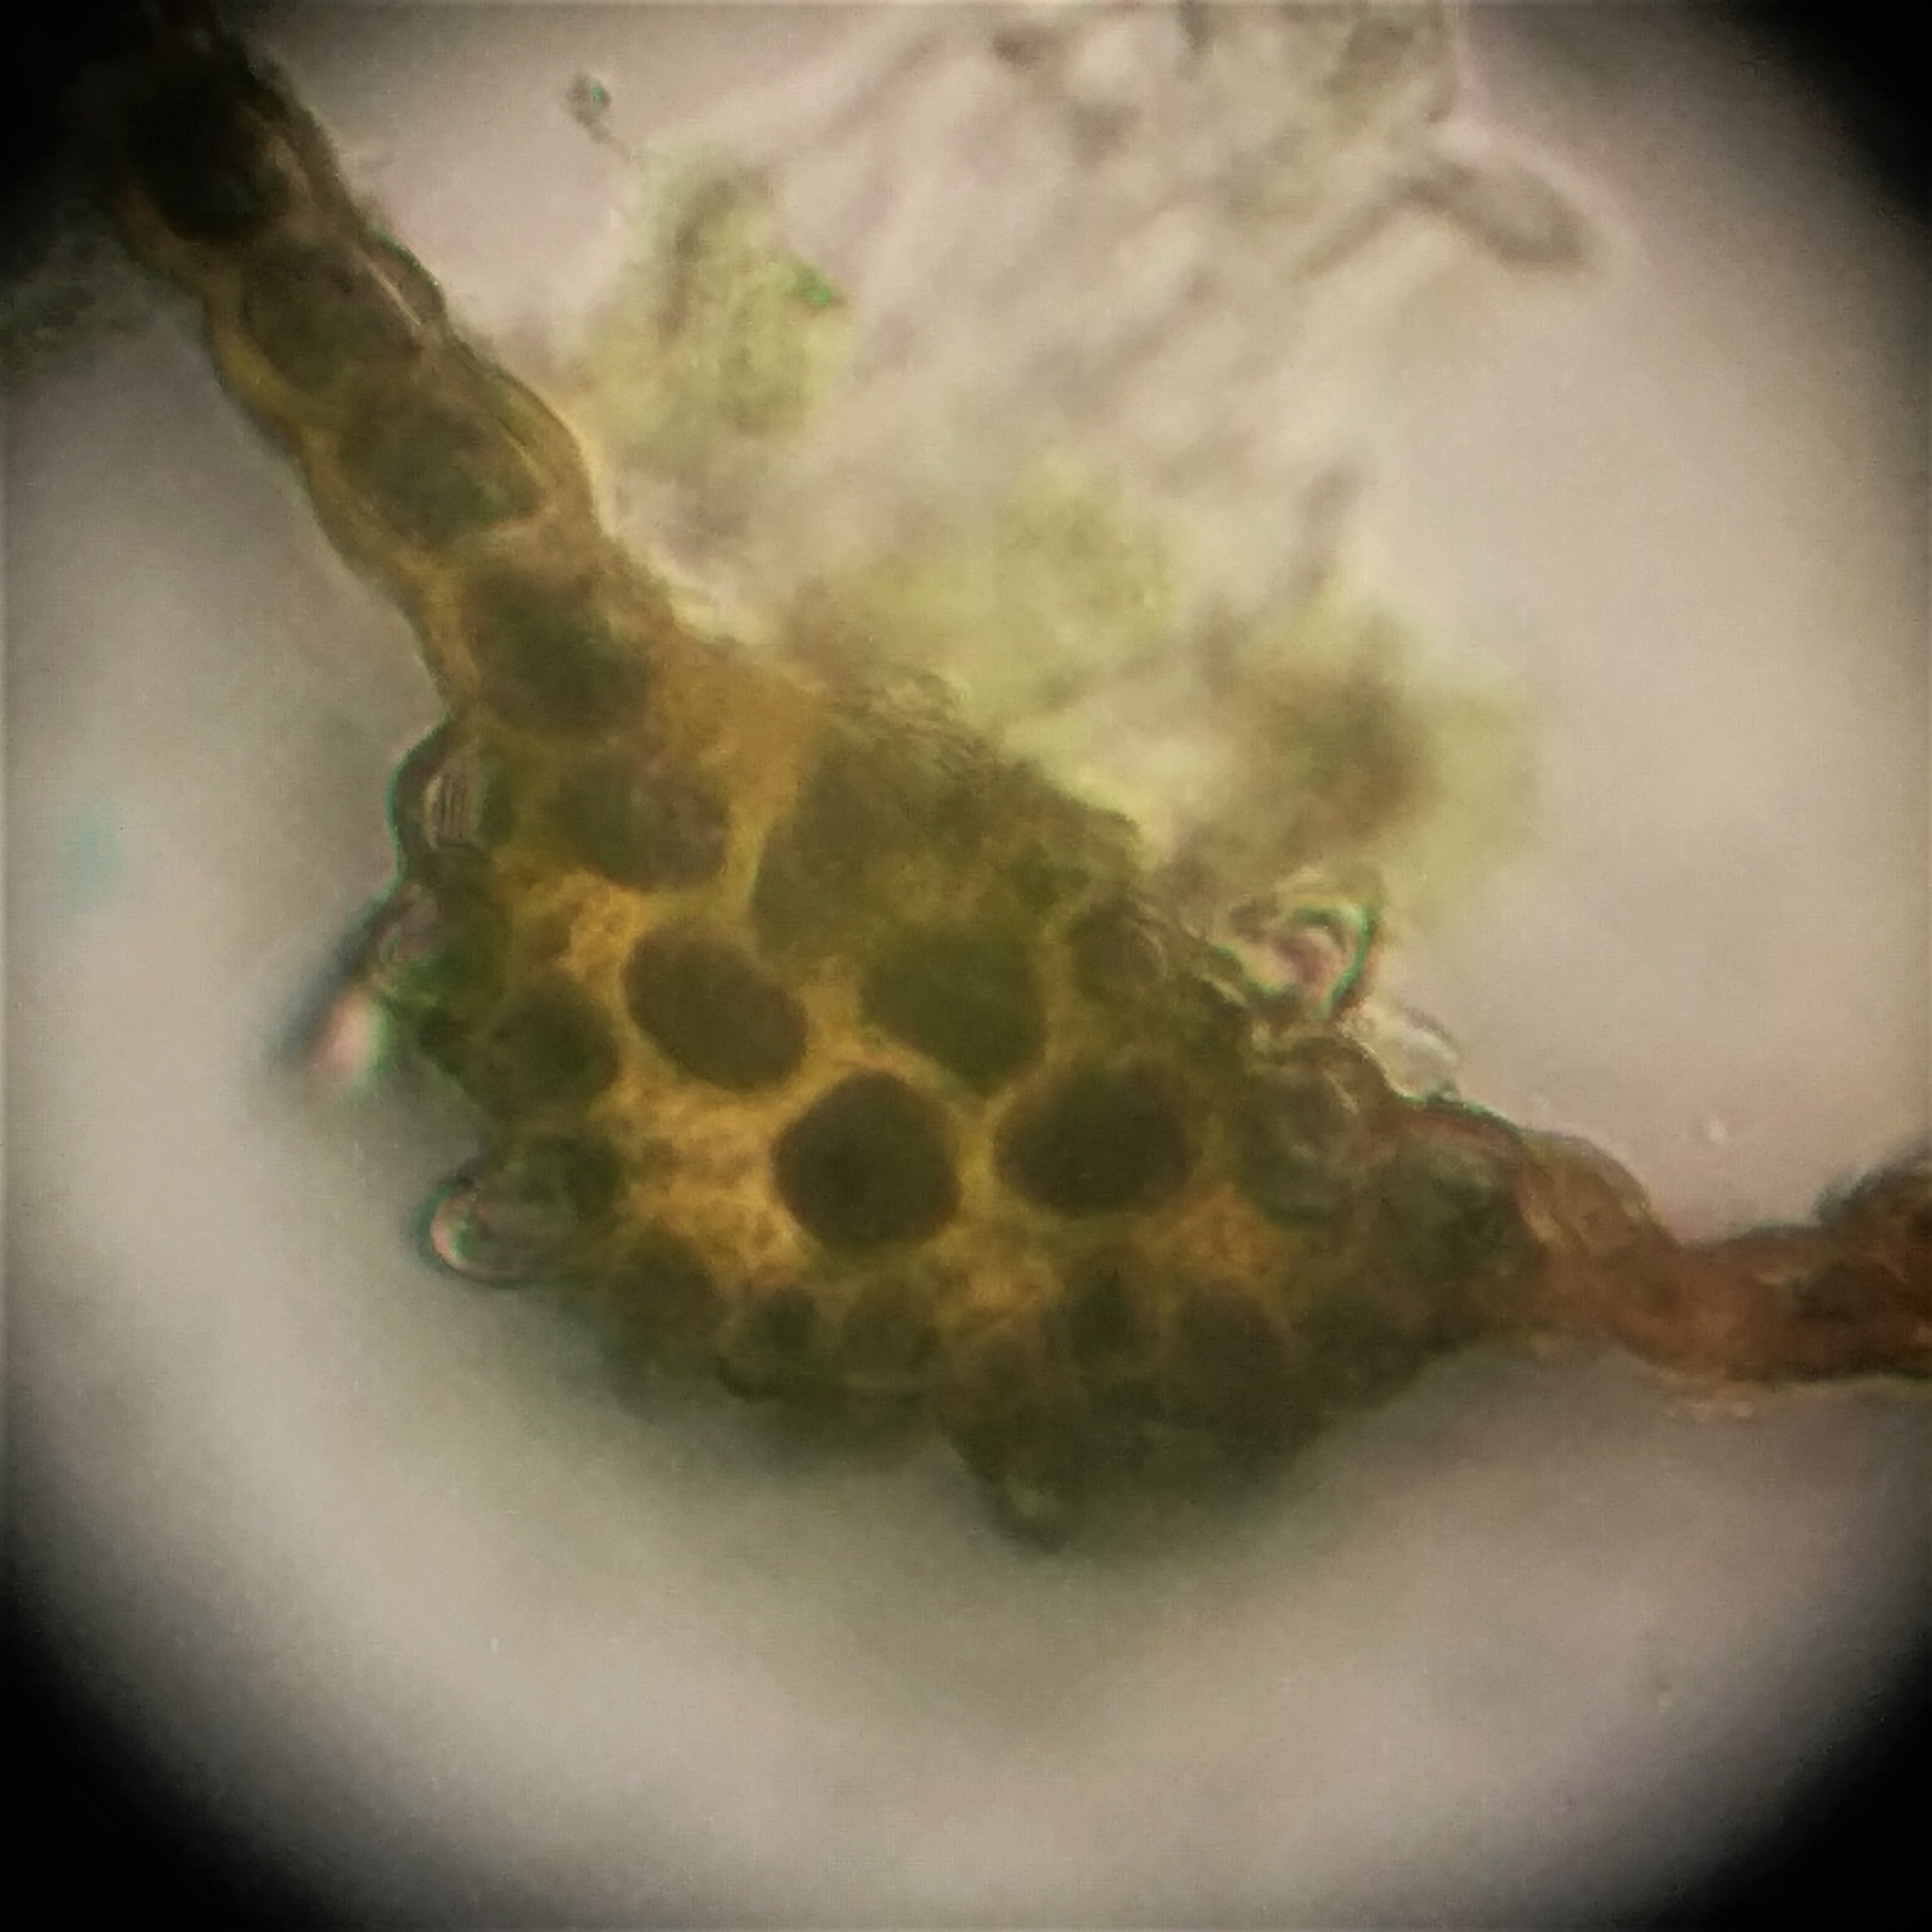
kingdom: Plantae
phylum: Bryophyta
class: Bryopsida
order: Dicranales
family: Dicranaceae
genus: Dicranum
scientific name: Dicranum majus
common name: Stor kløvtand
